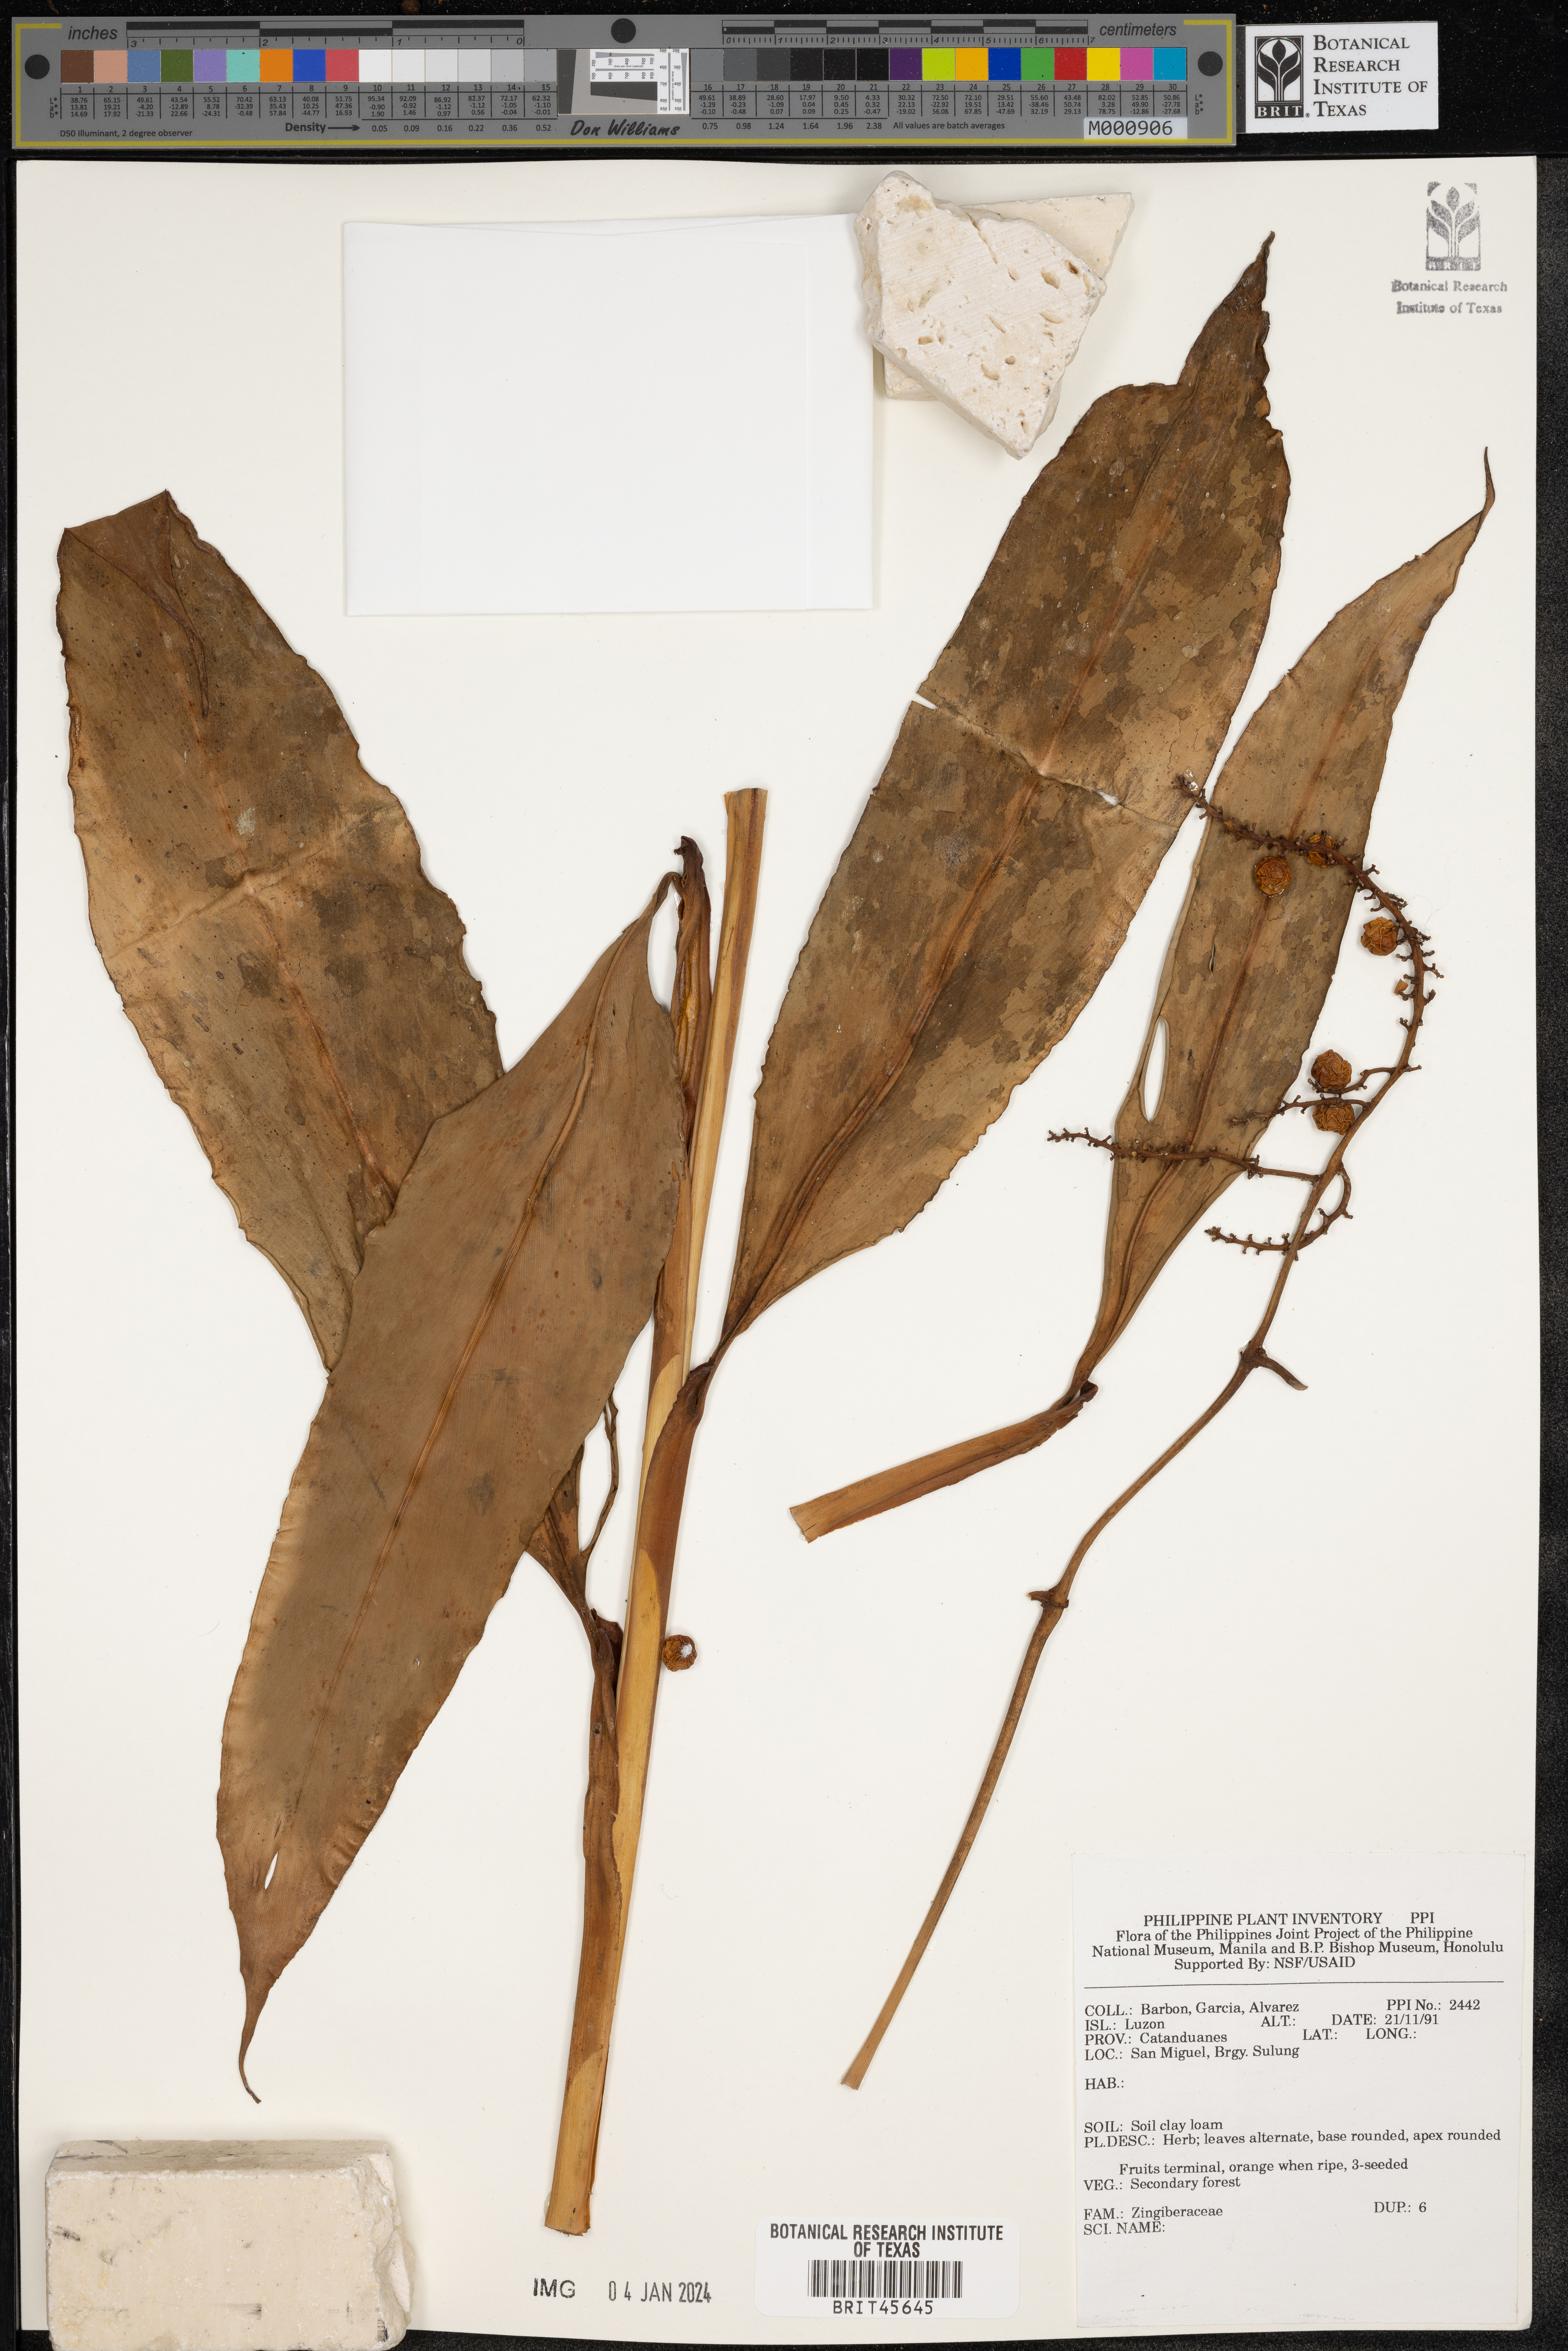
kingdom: Plantae
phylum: Tracheophyta
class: Liliopsida
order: Zingiberales
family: Zingiberaceae
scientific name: Zingiberaceae
